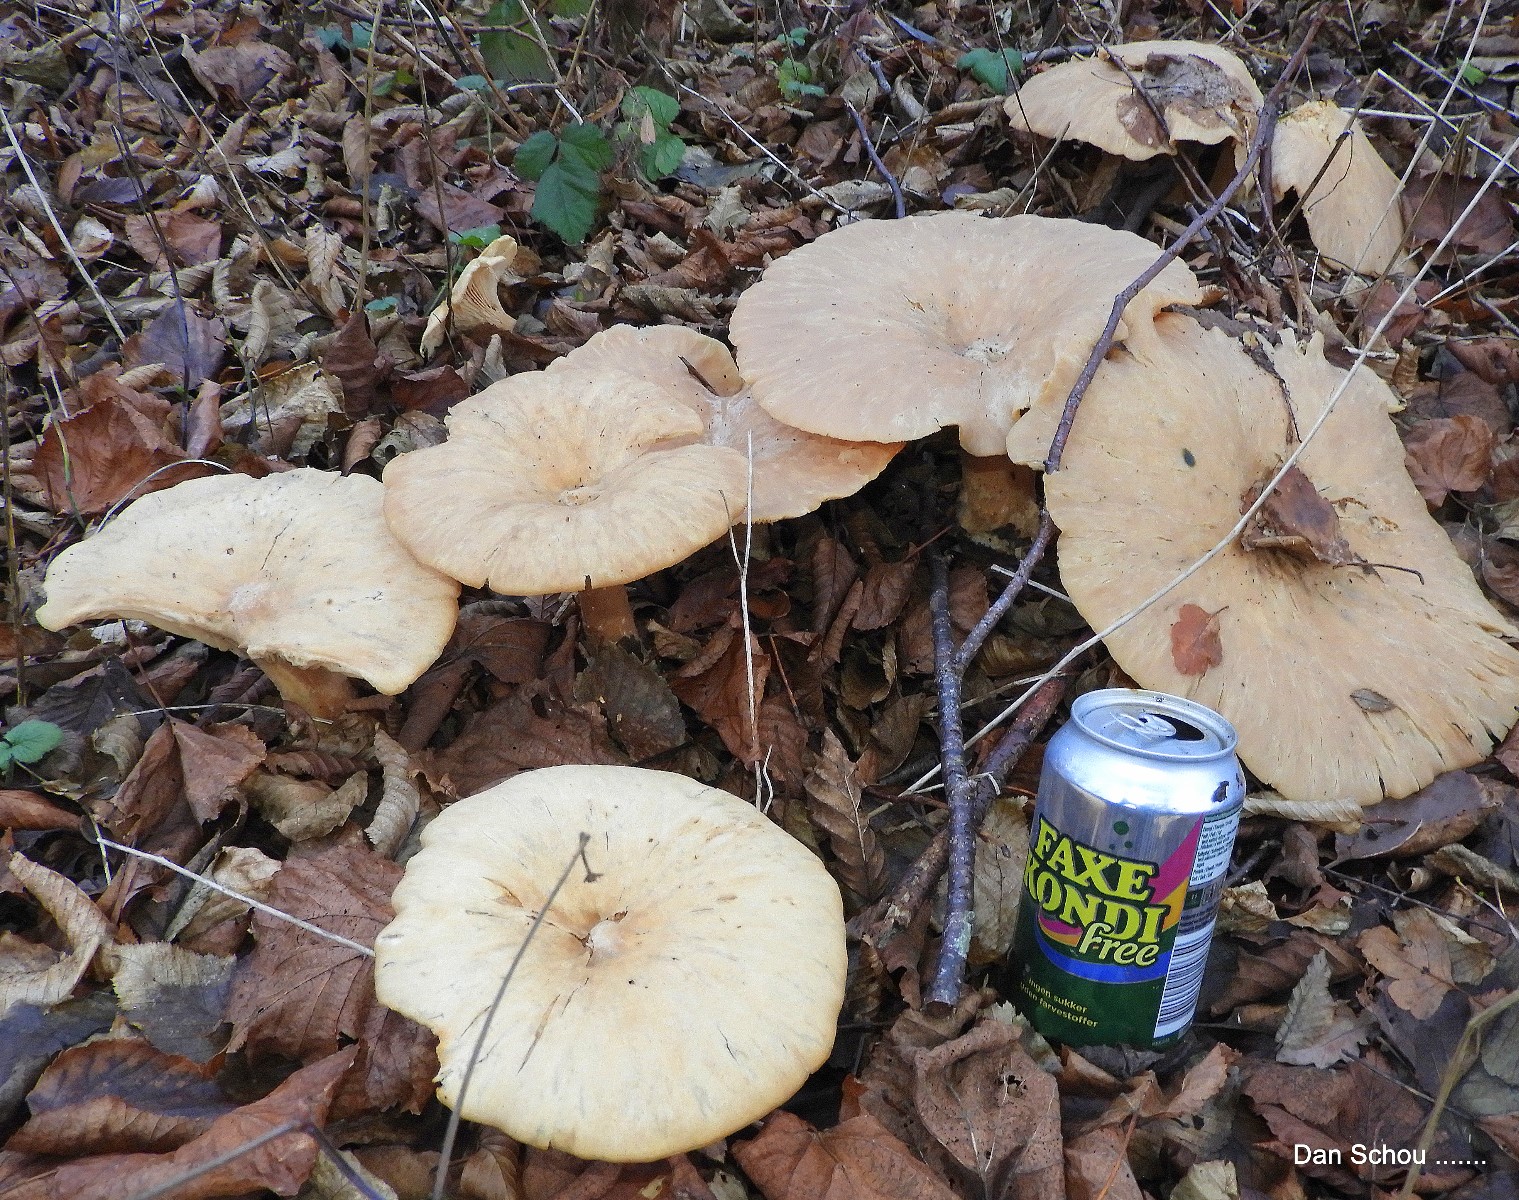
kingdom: Fungi
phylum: Basidiomycota
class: Agaricomycetes
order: Agaricales
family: Tricholomataceae
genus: Infundibulicybe
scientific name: Infundibulicybe geotropa
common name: stor tragthat
